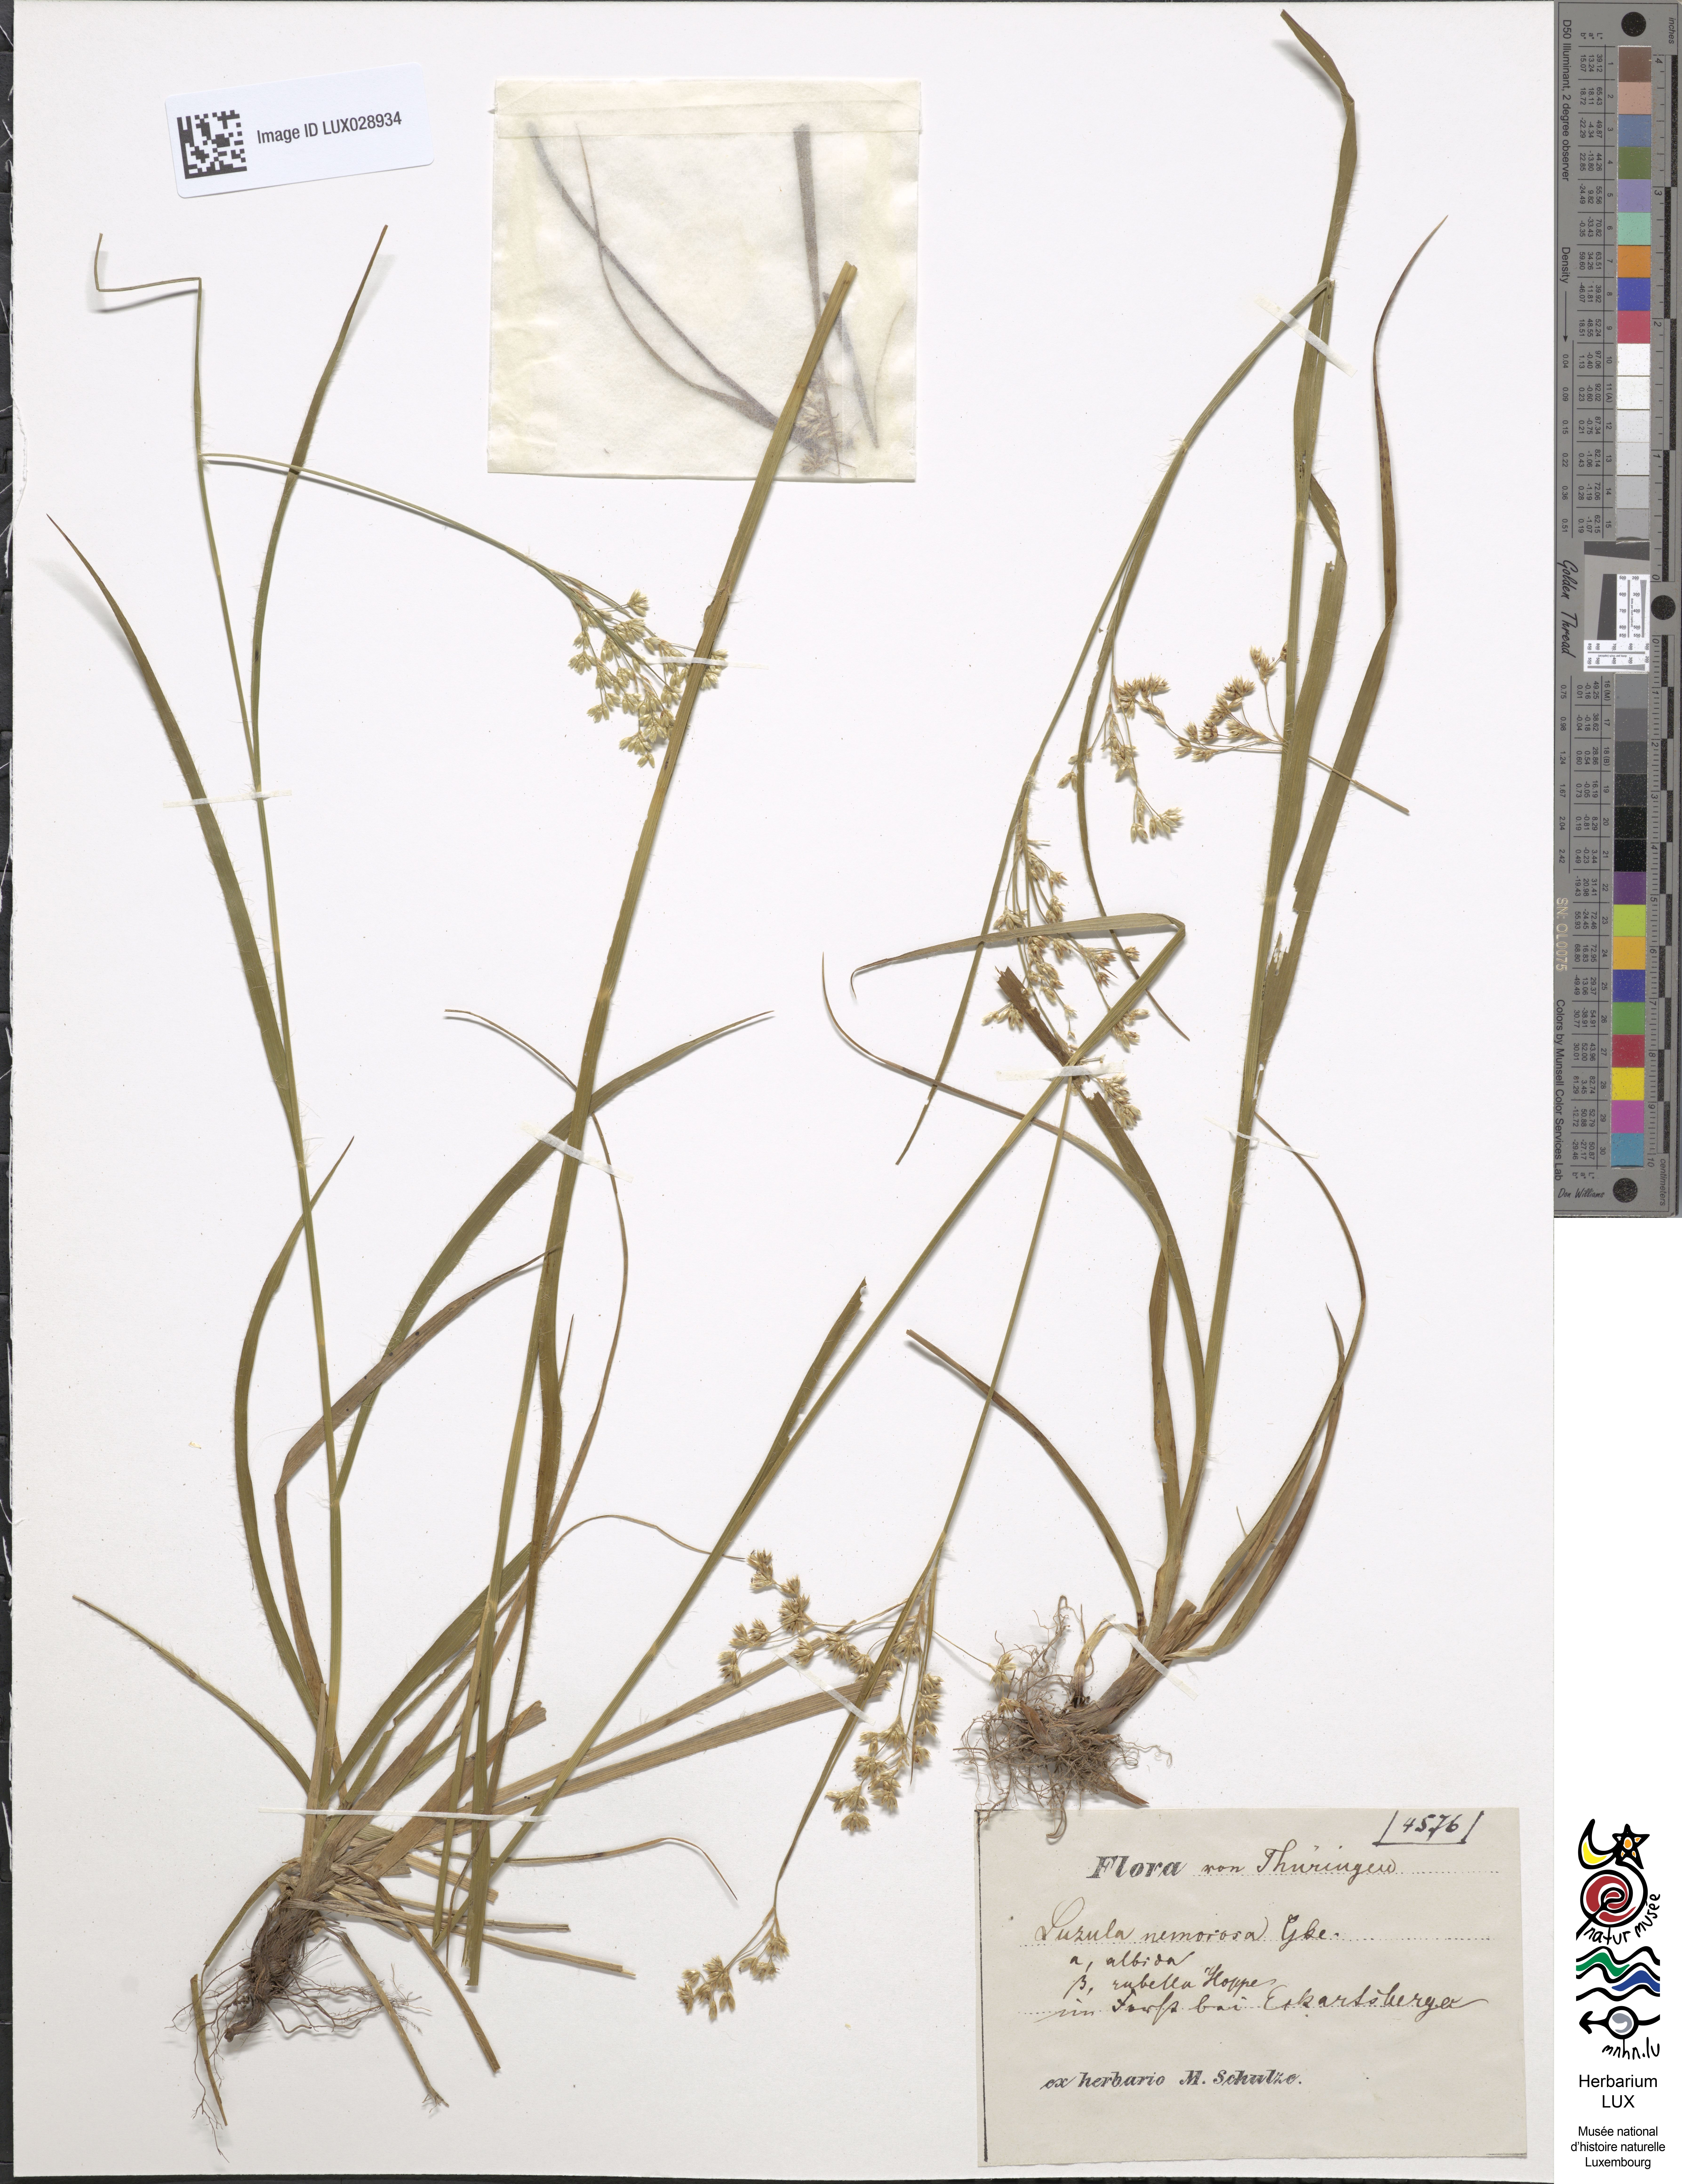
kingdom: Plantae
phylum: Tracheophyta
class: Liliopsida
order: Poales
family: Juncaceae
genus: Luzula
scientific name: Luzula luzuloides
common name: White wood-rush
